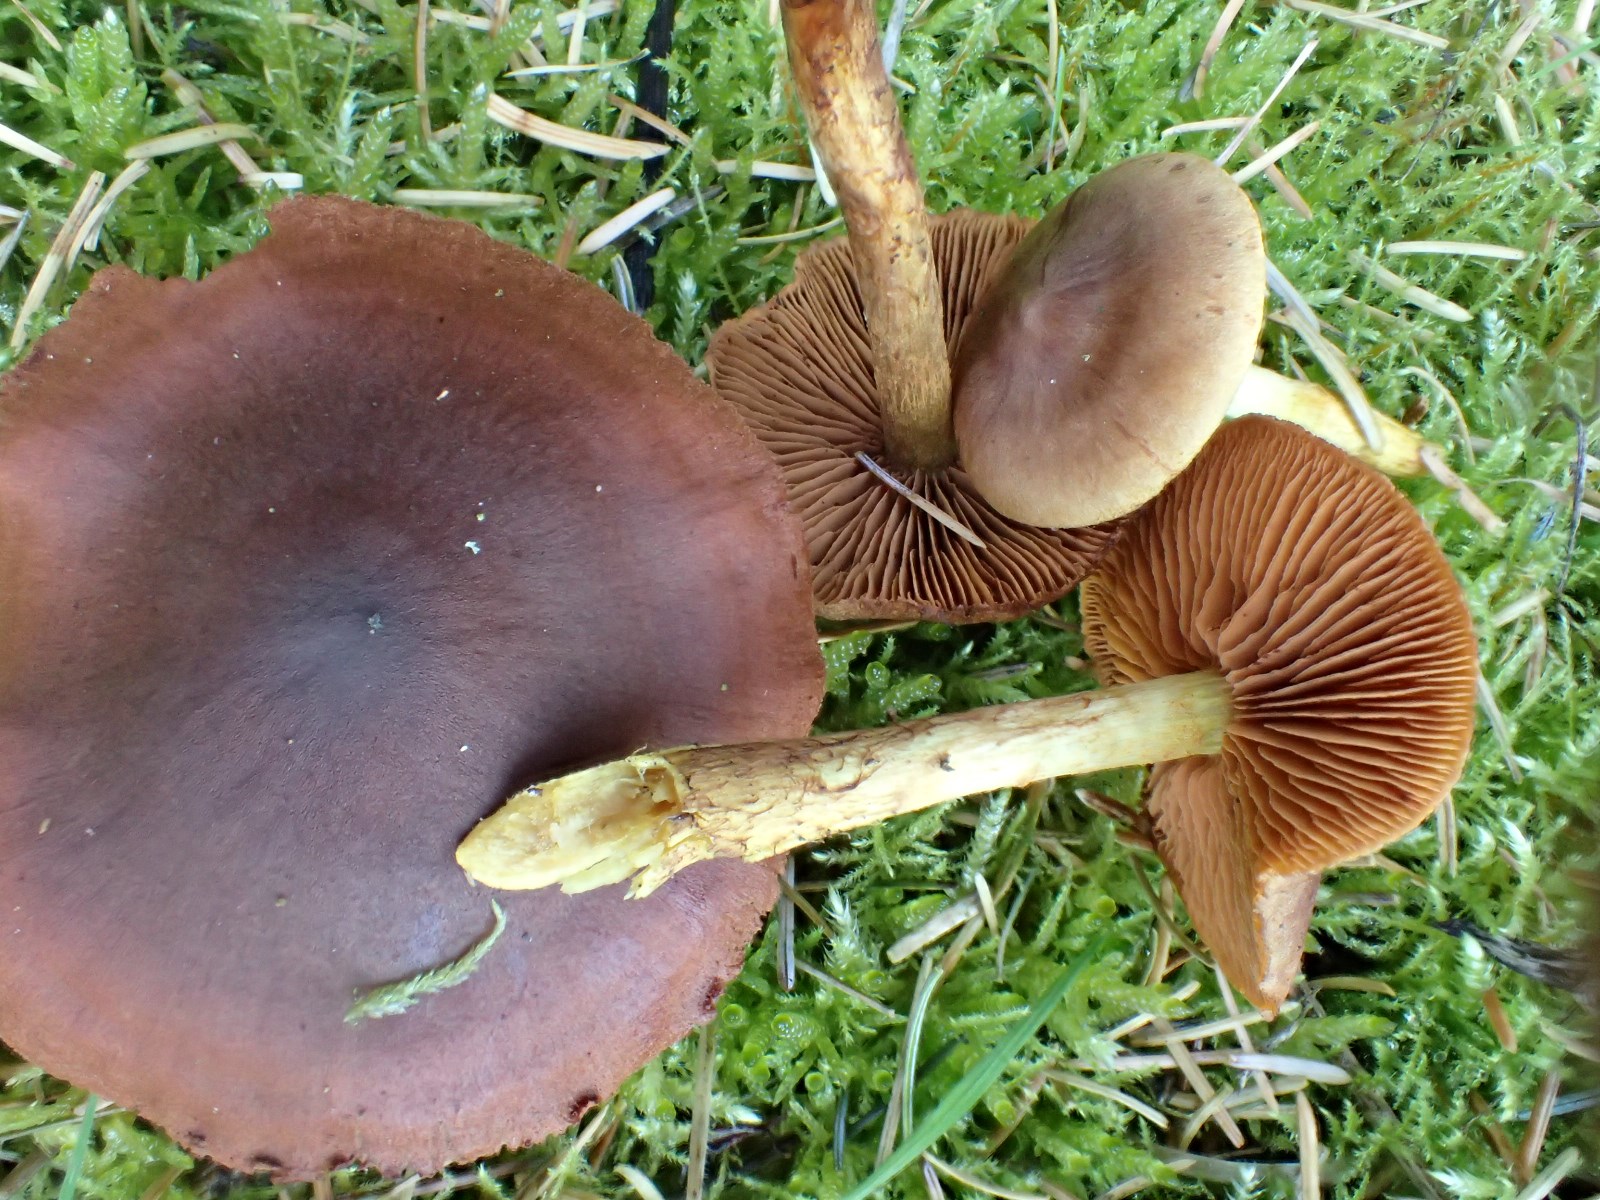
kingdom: Fungi
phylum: Basidiomycota
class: Agaricomycetes
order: Agaricales
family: Cortinariaceae
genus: Cortinarius
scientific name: Cortinarius cinnamomeus
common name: kanel-slørhat
